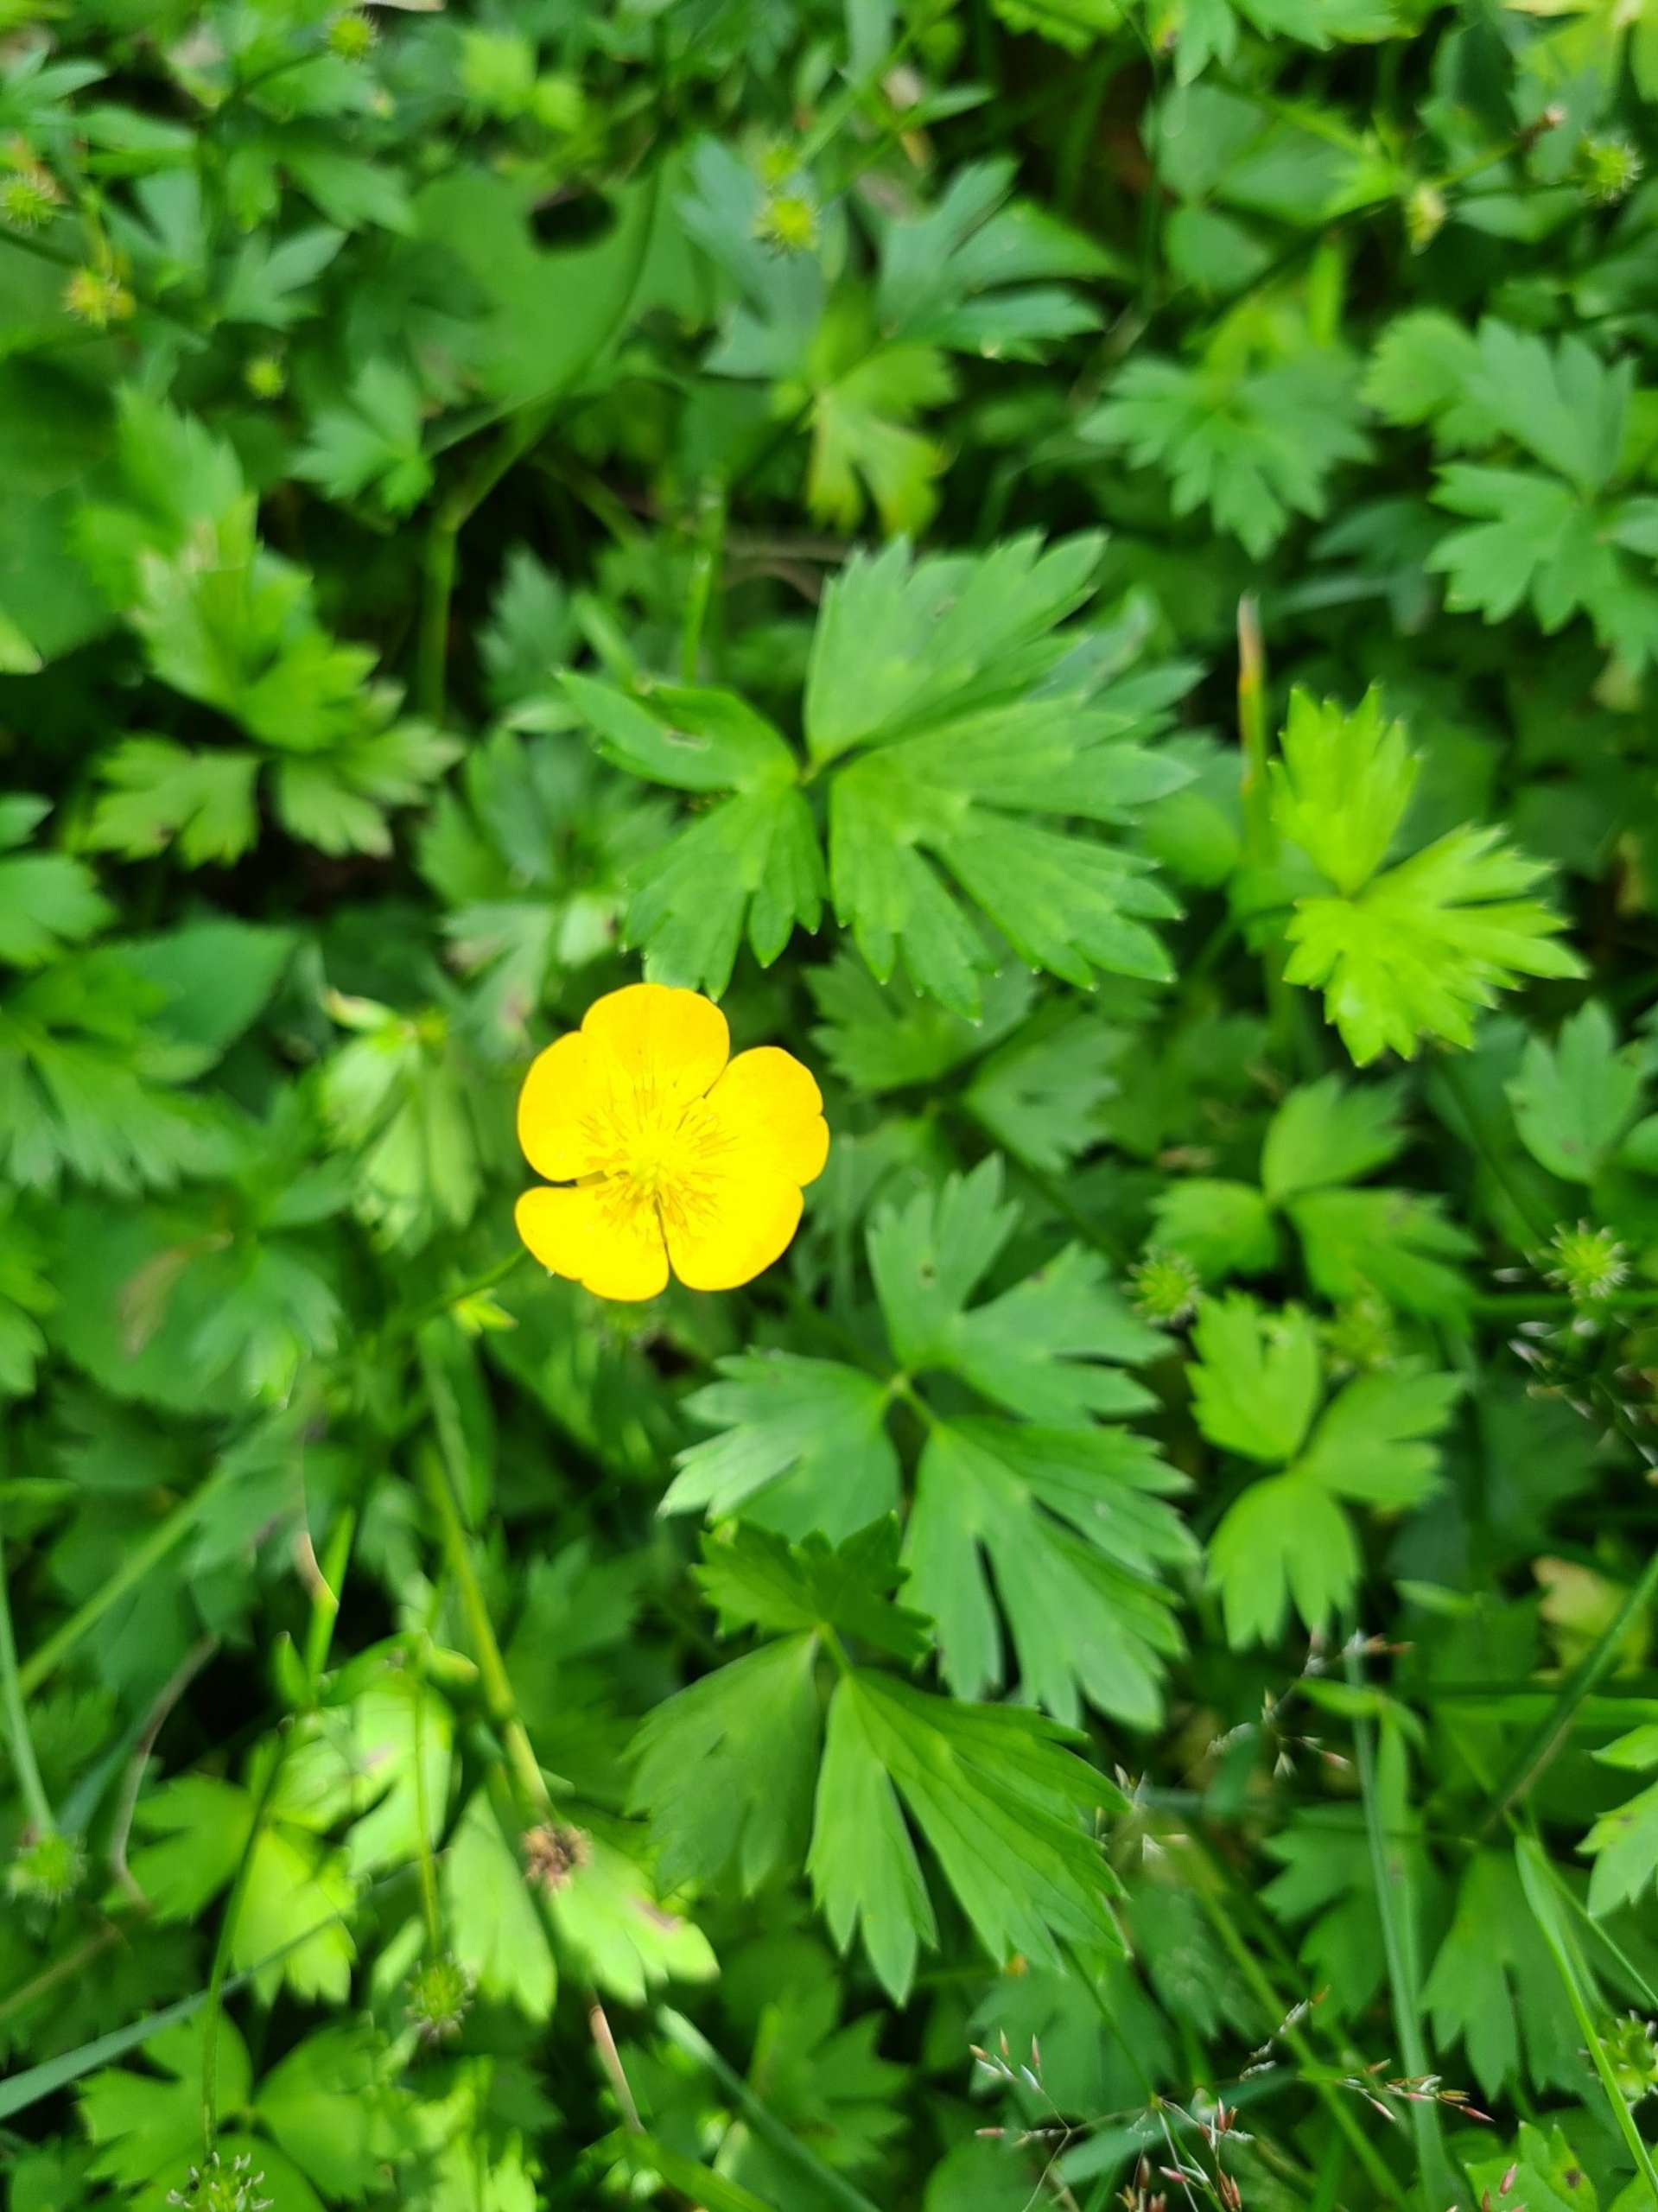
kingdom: Plantae
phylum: Tracheophyta
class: Magnoliopsida
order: Ranunculales
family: Ranunculaceae
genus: Ranunculus
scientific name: Ranunculus repens
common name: Lav ranunkel
